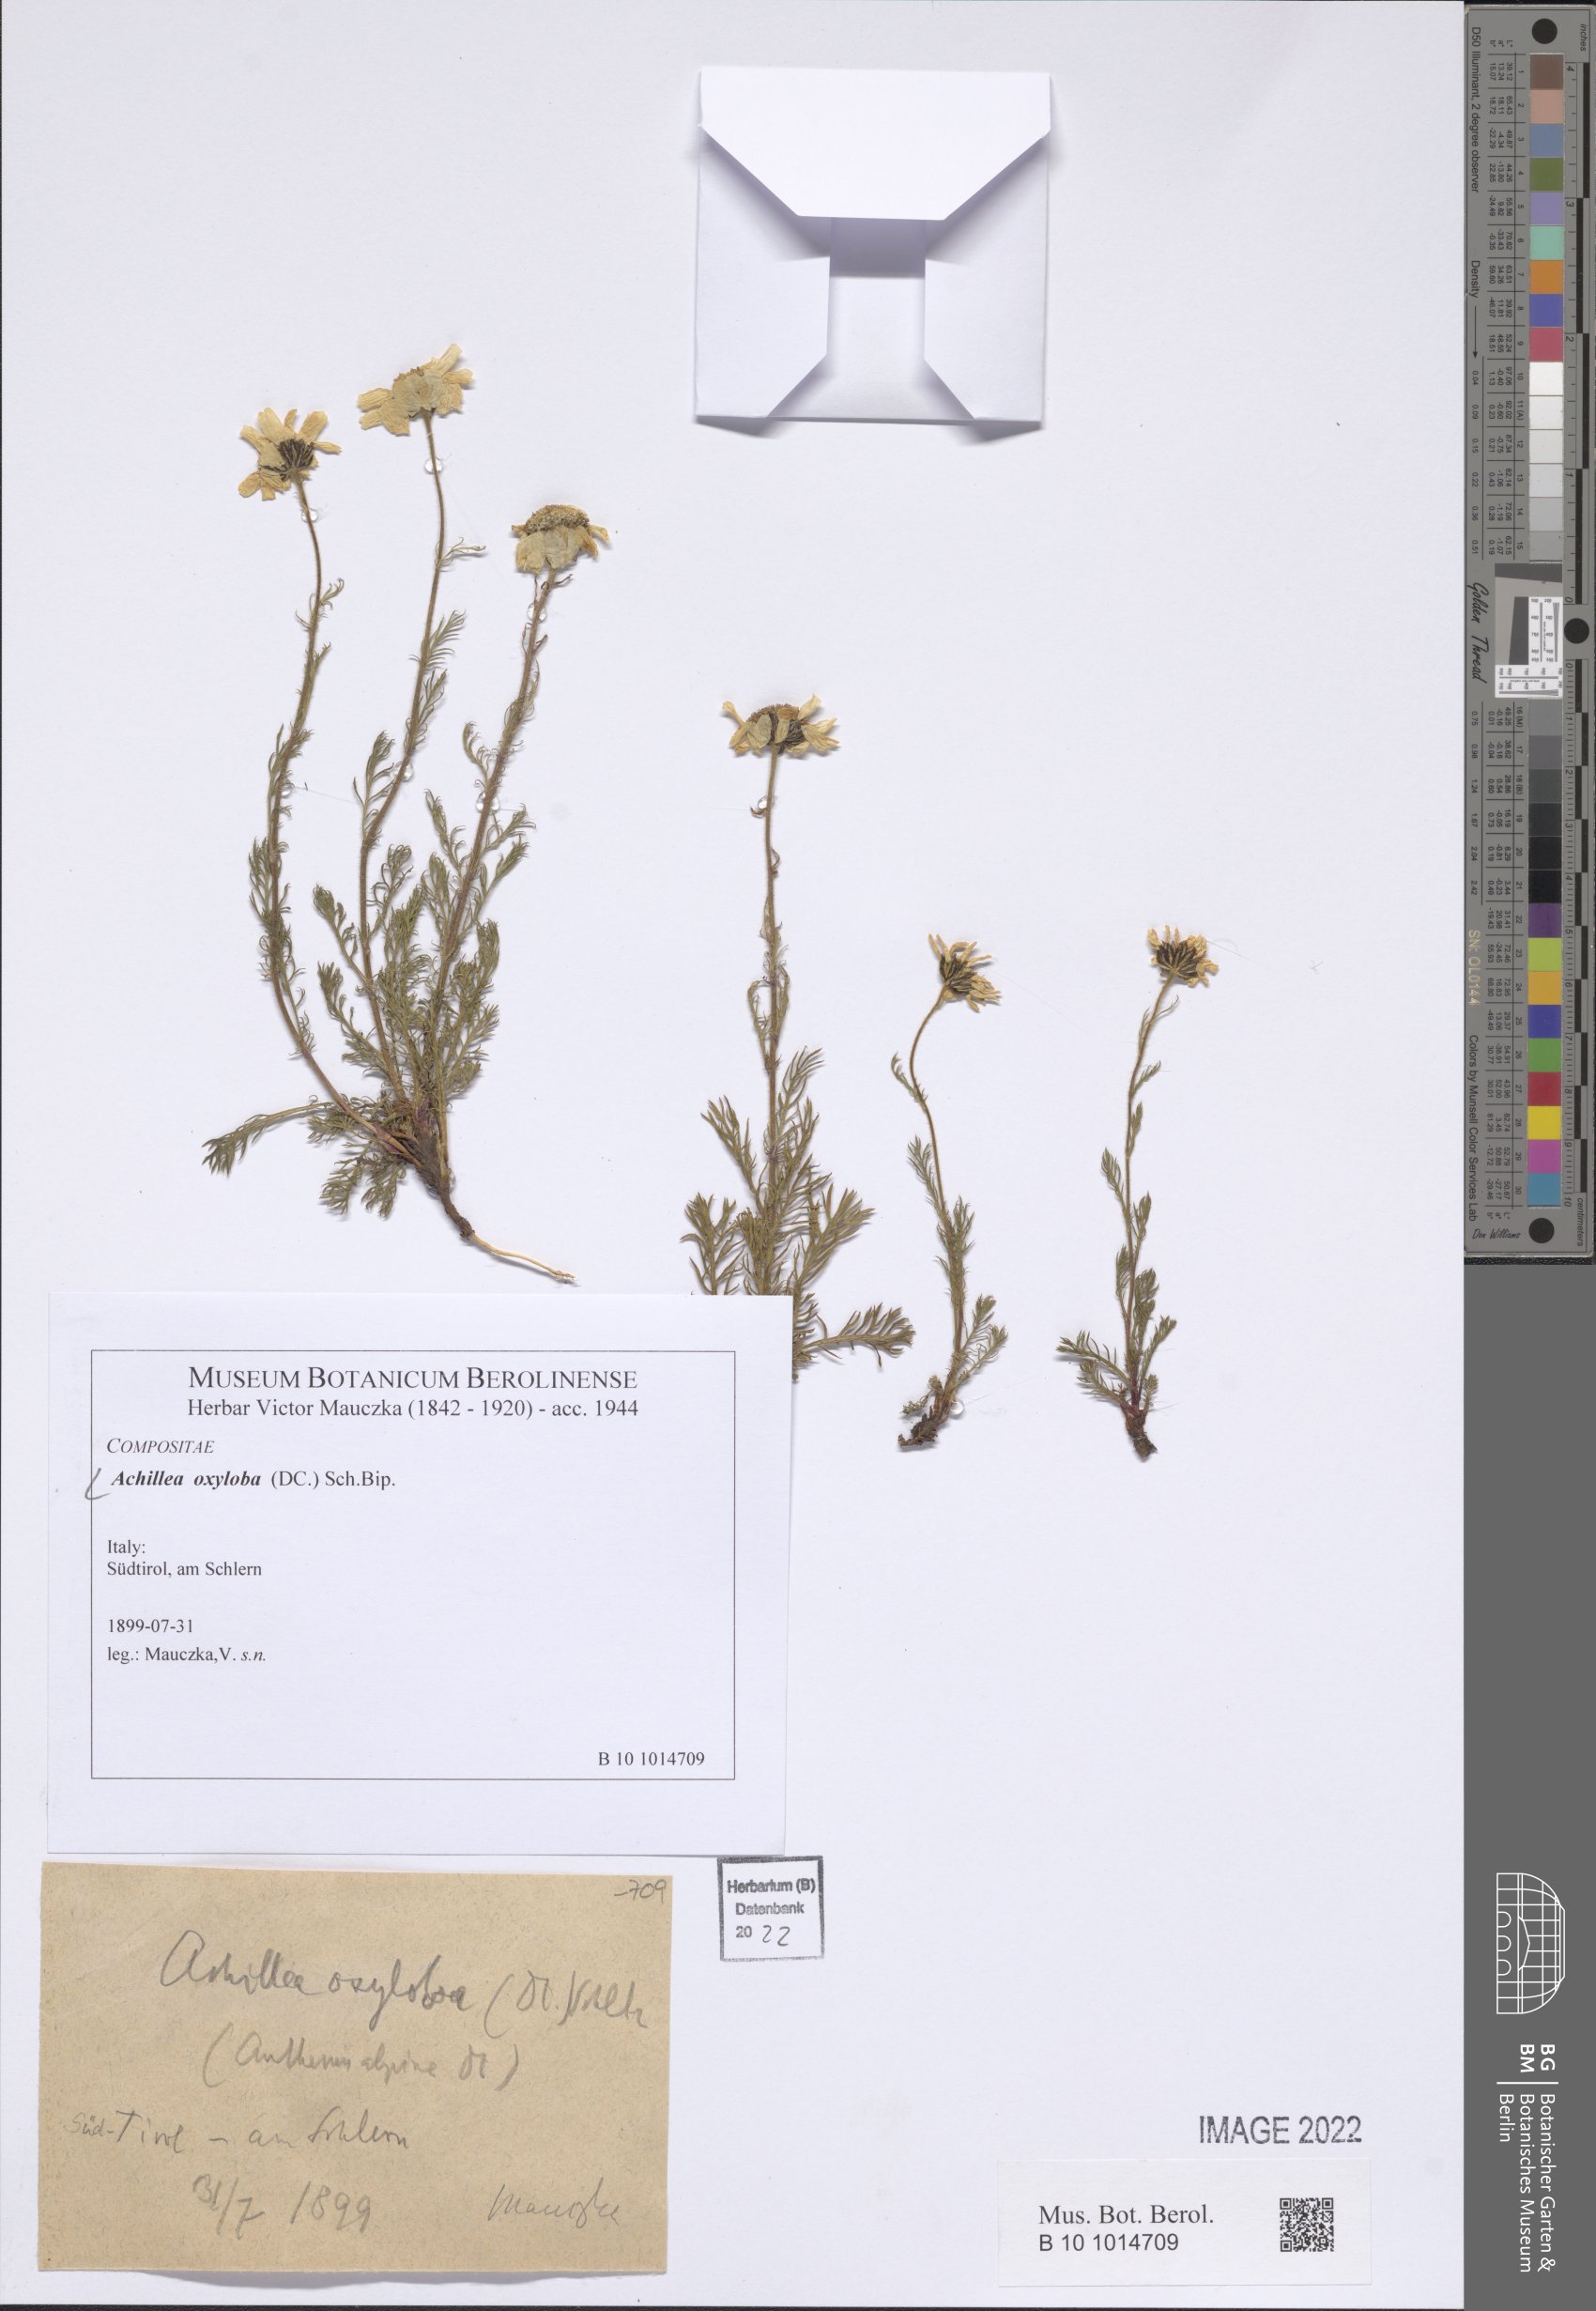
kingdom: Plantae
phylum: Tracheophyta
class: Magnoliopsida
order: Asterales
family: Asteraceae
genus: Achillea
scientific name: Achillea oxyloba
